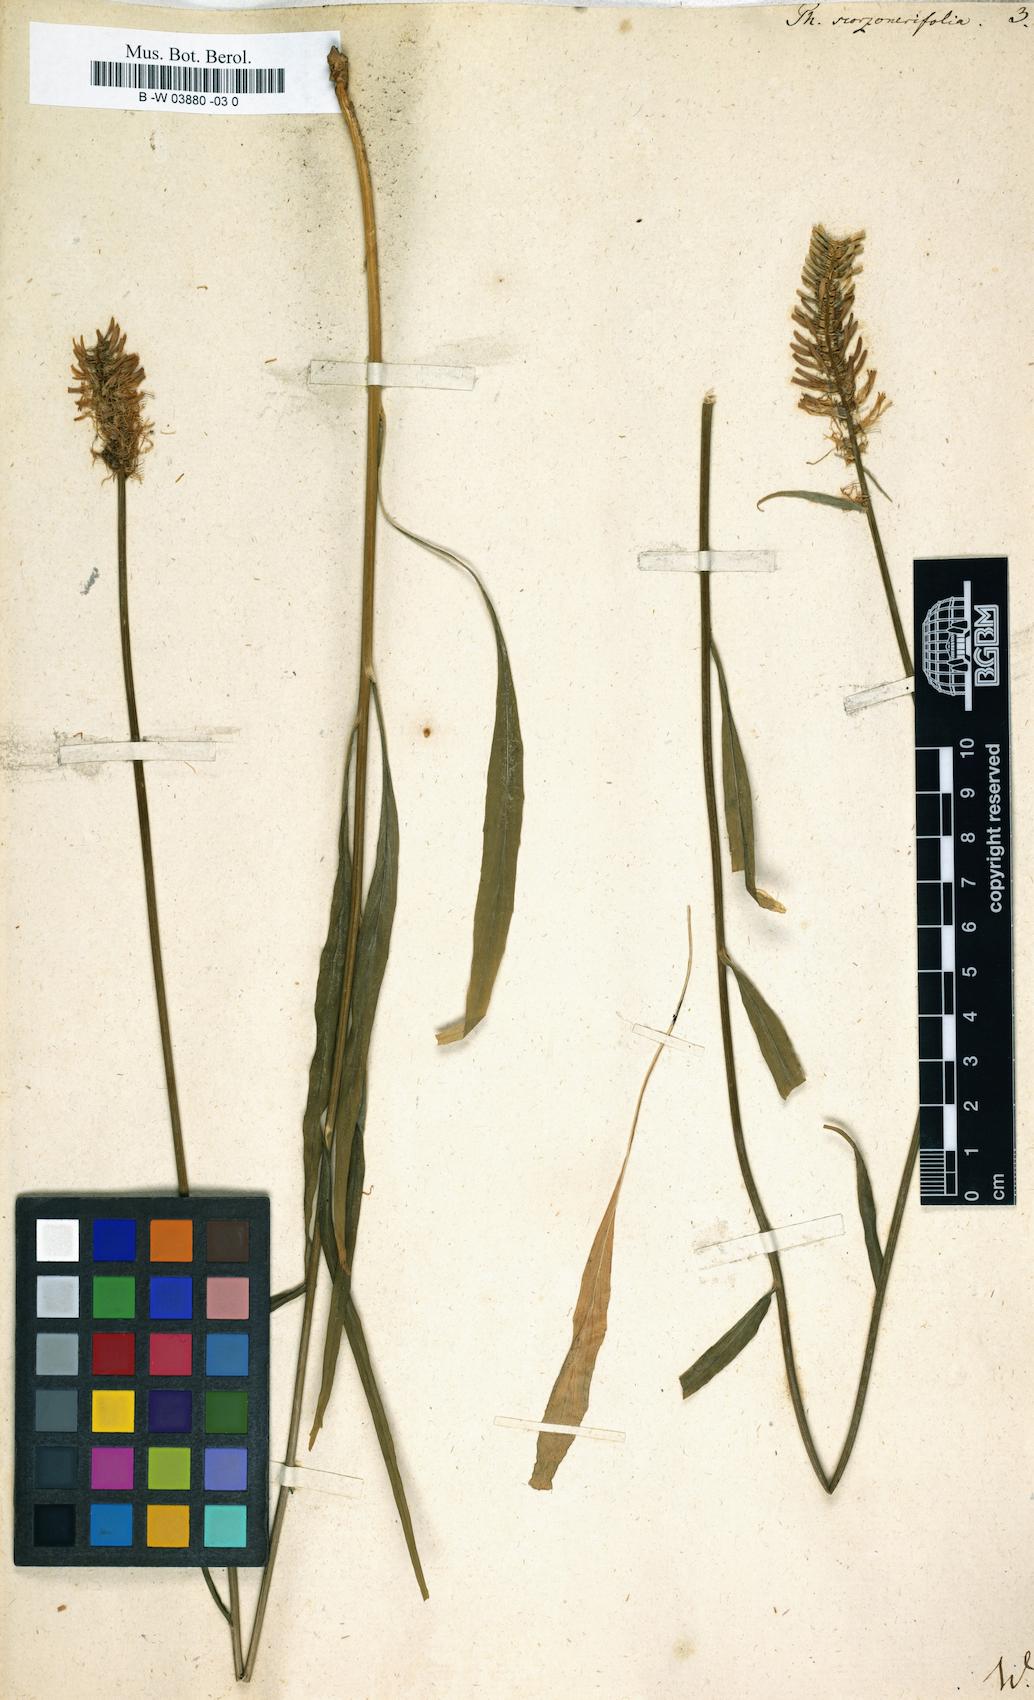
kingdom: Plantae
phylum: Tracheophyta
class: Magnoliopsida
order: Asterales
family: Campanulaceae
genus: Phyteuma
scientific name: Phyteuma scorzonerifolium
